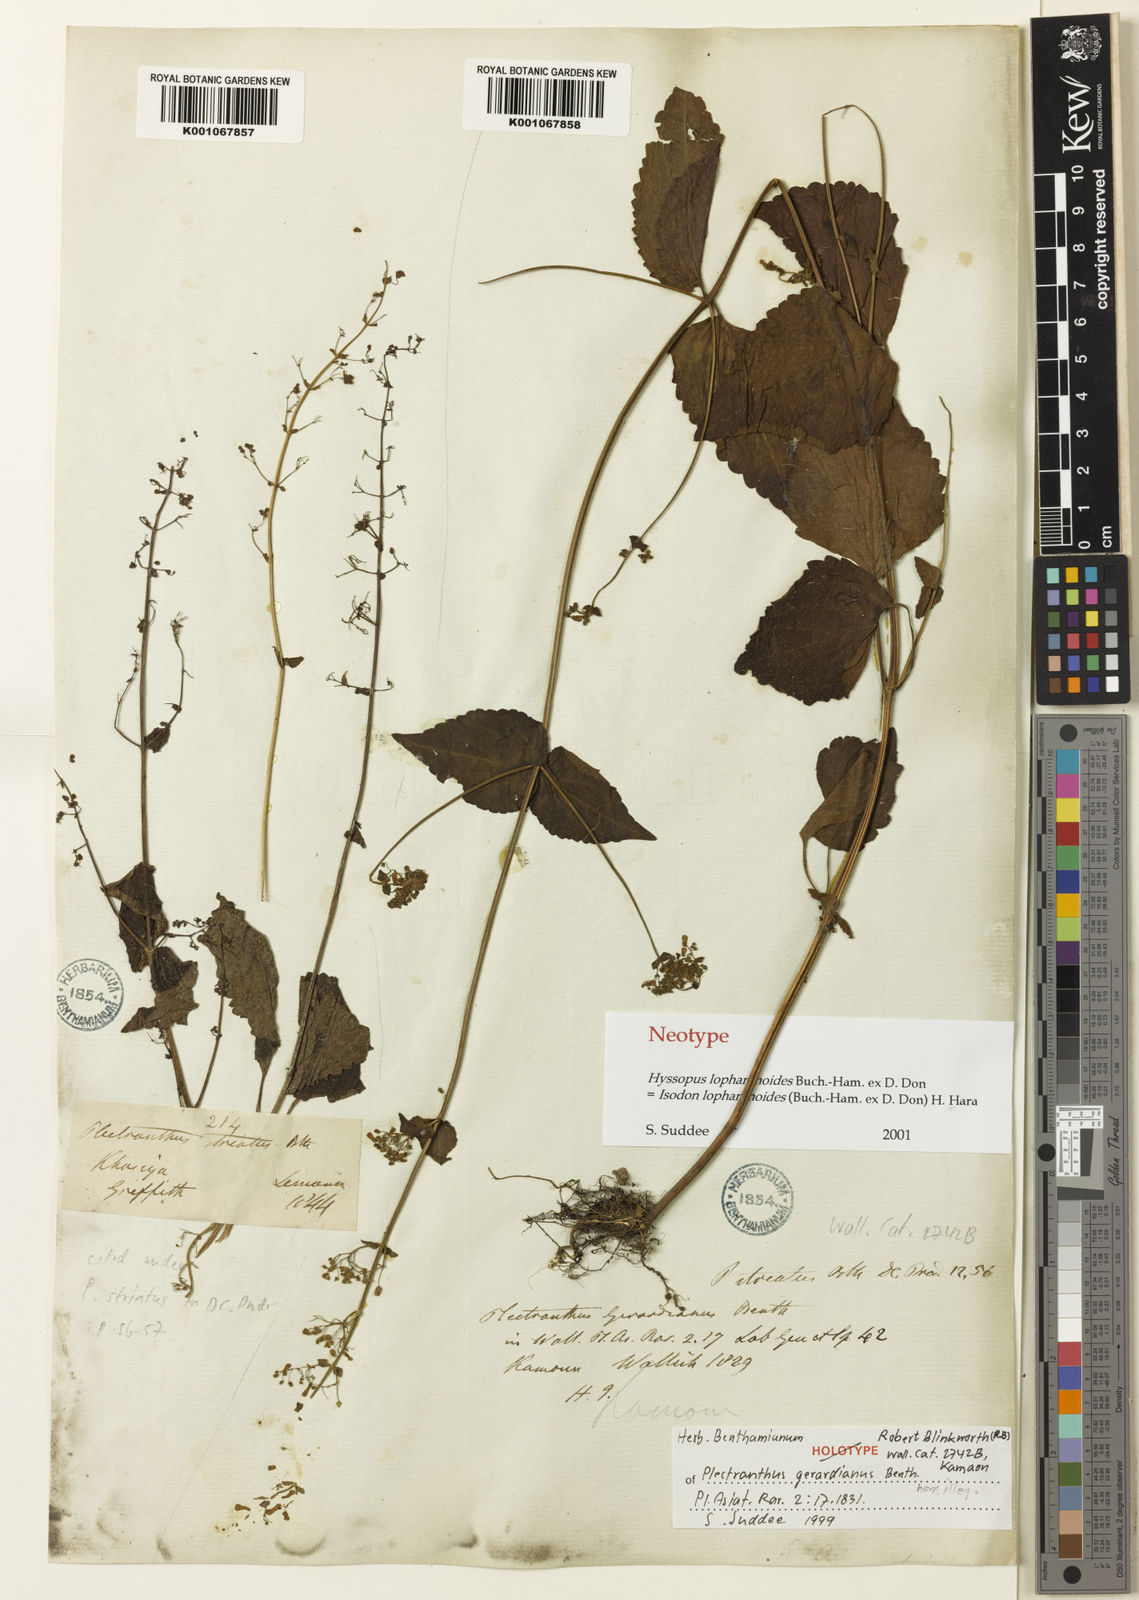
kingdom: Plantae
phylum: Tracheophyta
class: Magnoliopsida
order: Lamiales
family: Lamiaceae
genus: Isodon
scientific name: Isodon lophanthoides
